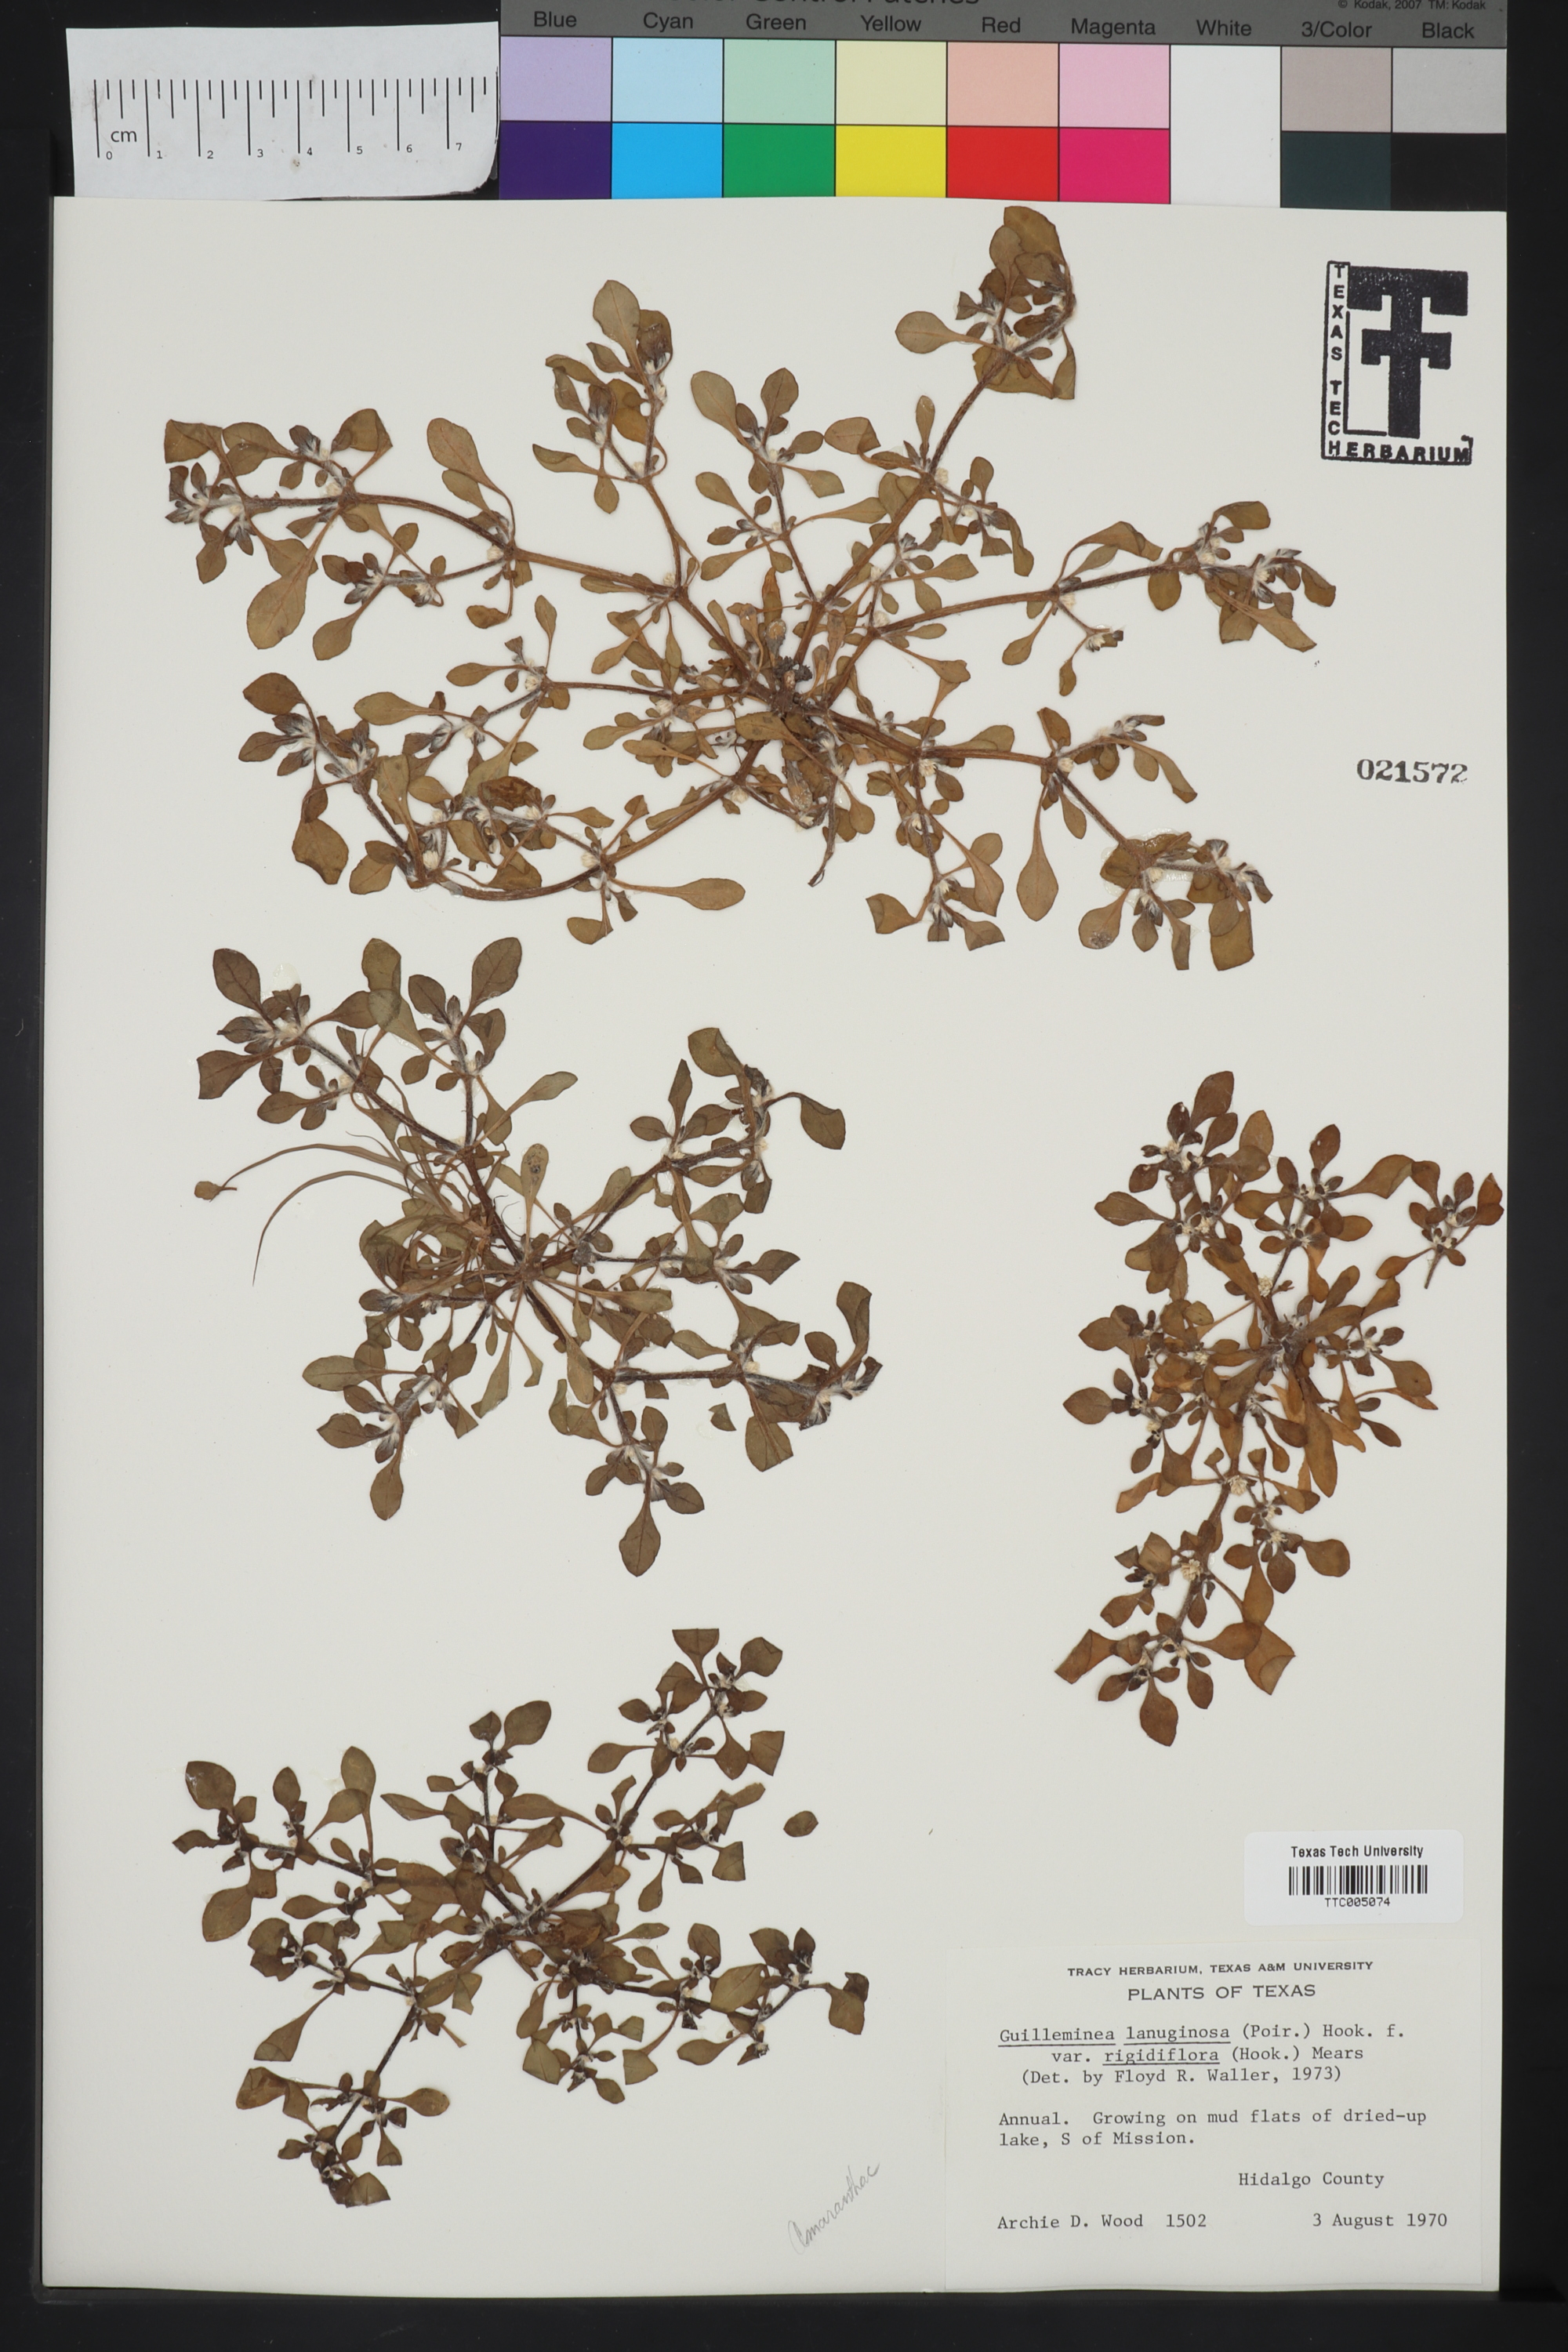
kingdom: Plantae
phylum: Tracheophyta
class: Magnoliopsida
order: Caryophyllales
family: Amaranthaceae
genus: Gomphrena
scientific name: Gomphrena lanuparonychioides
